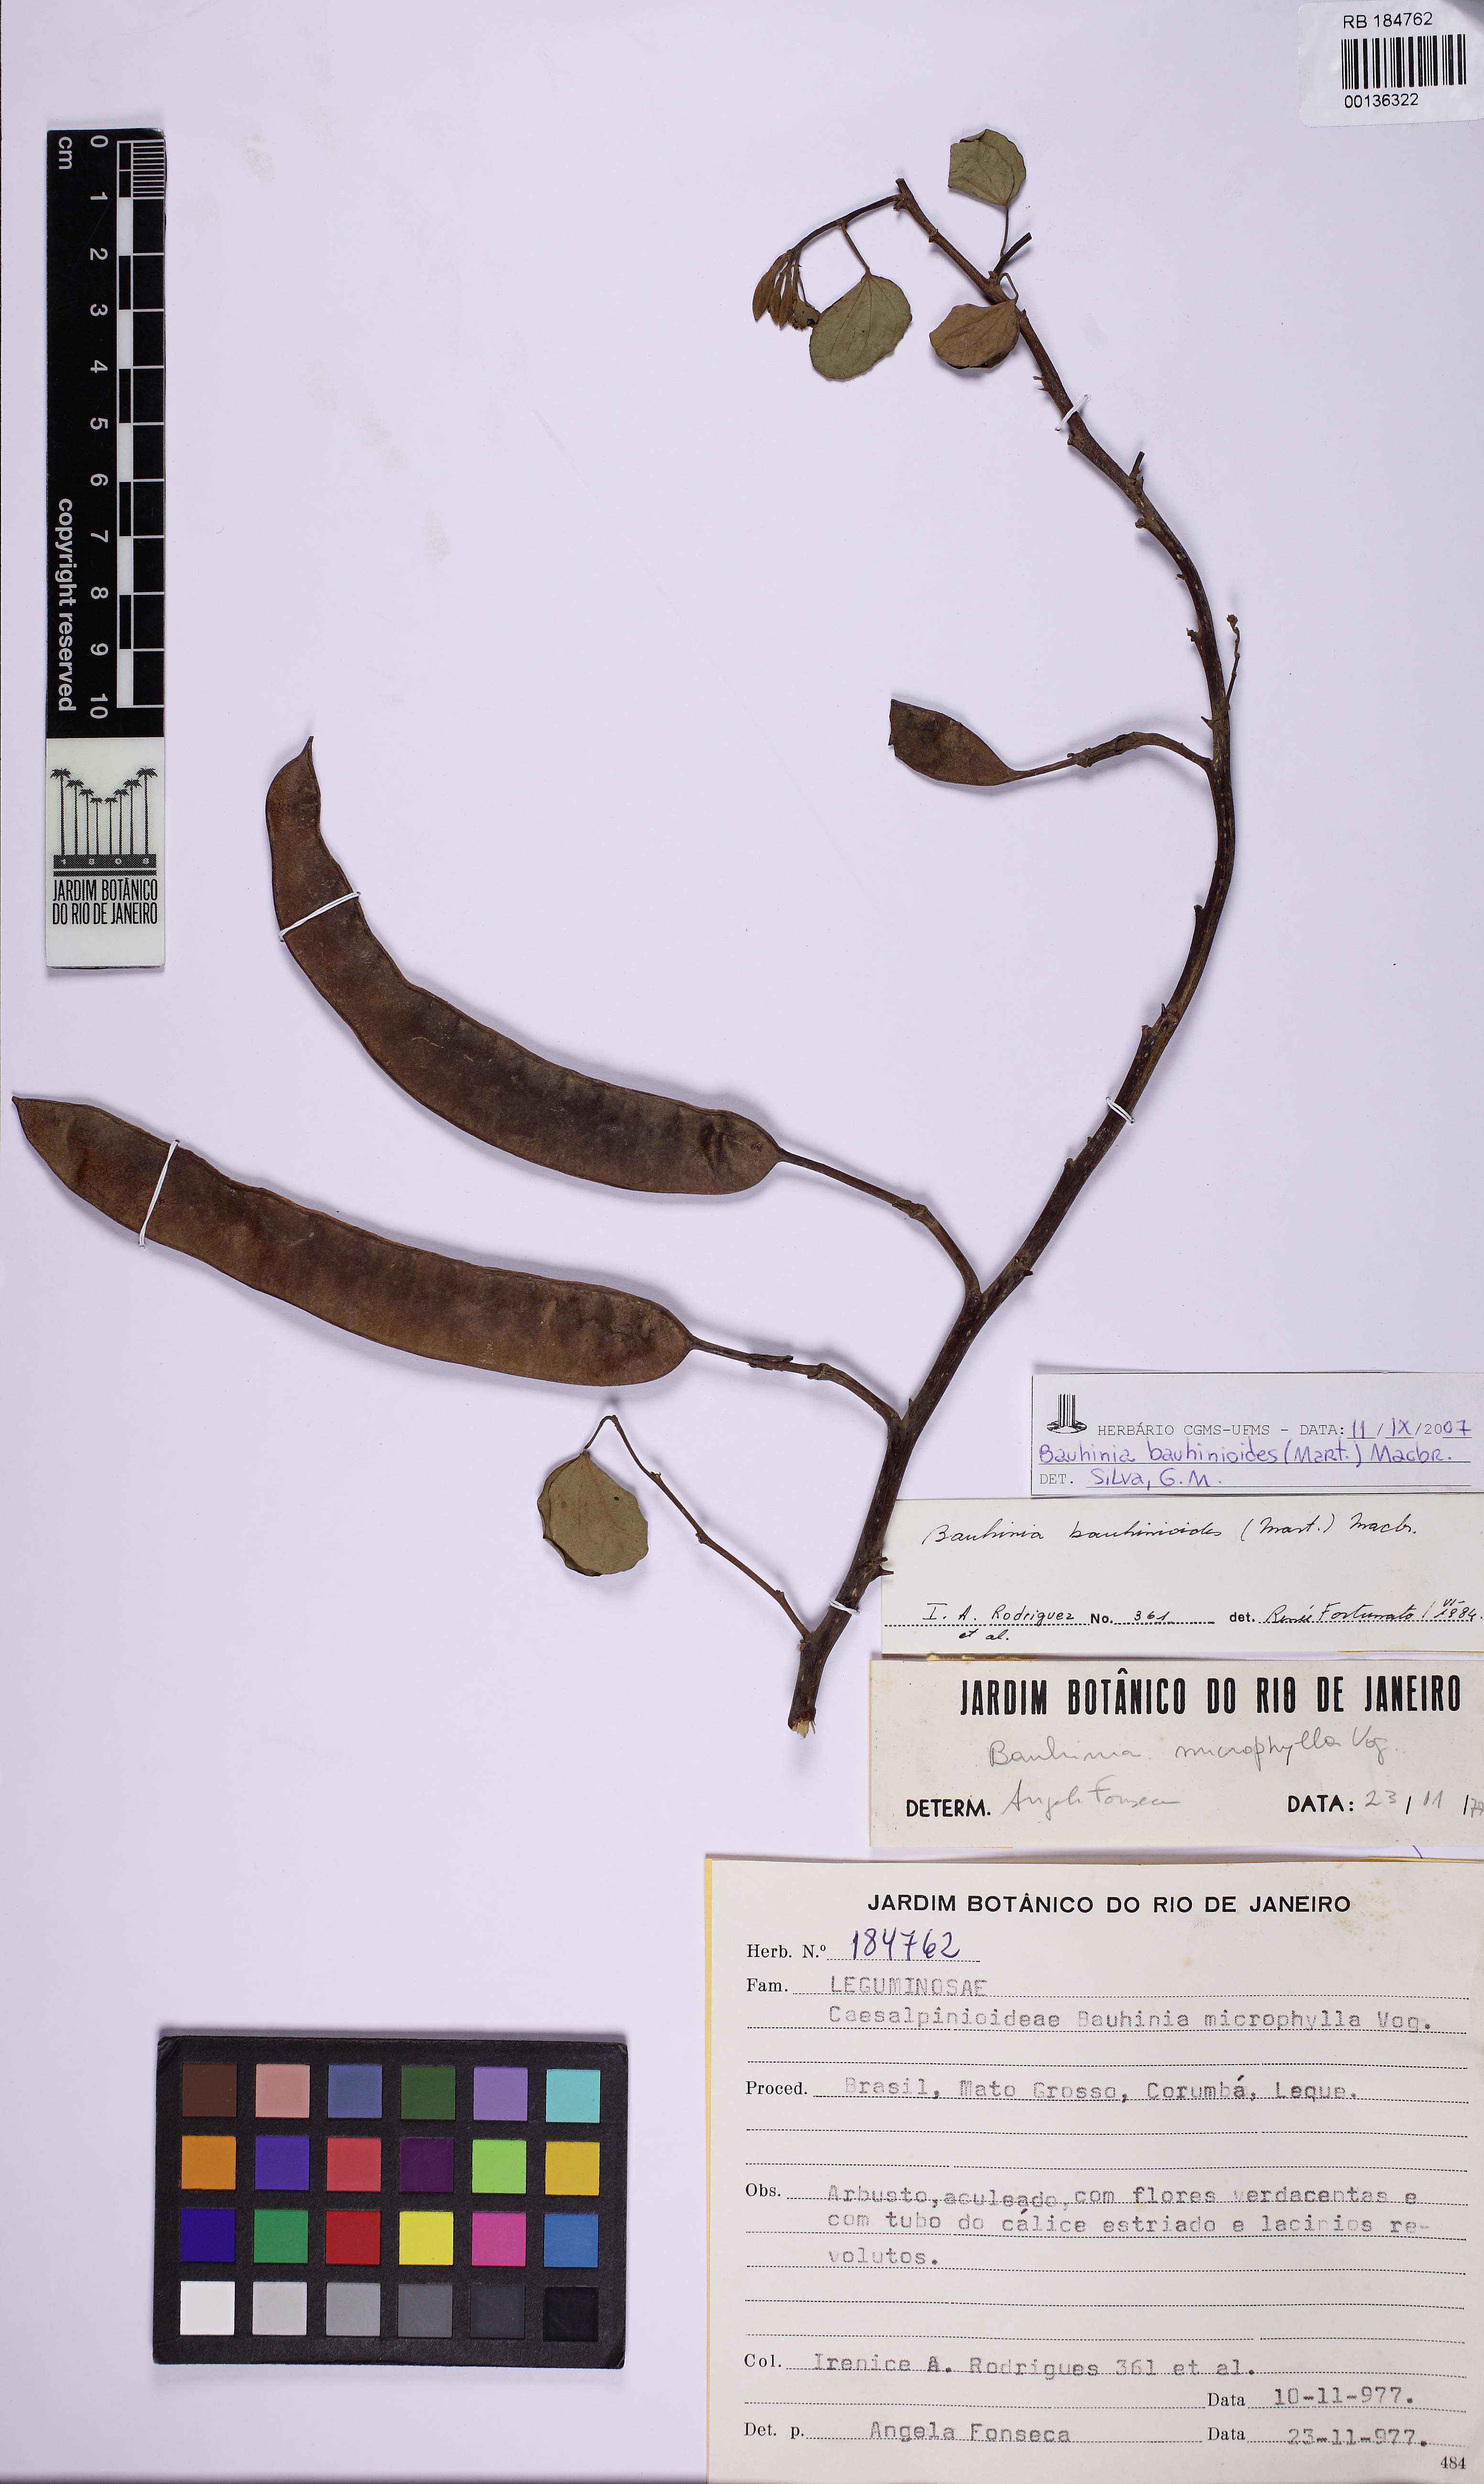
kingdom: Plantae
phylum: Tracheophyta
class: Magnoliopsida
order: Fabales
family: Fabaceae
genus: Bauhinia
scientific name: Bauhinia bauhinioides
